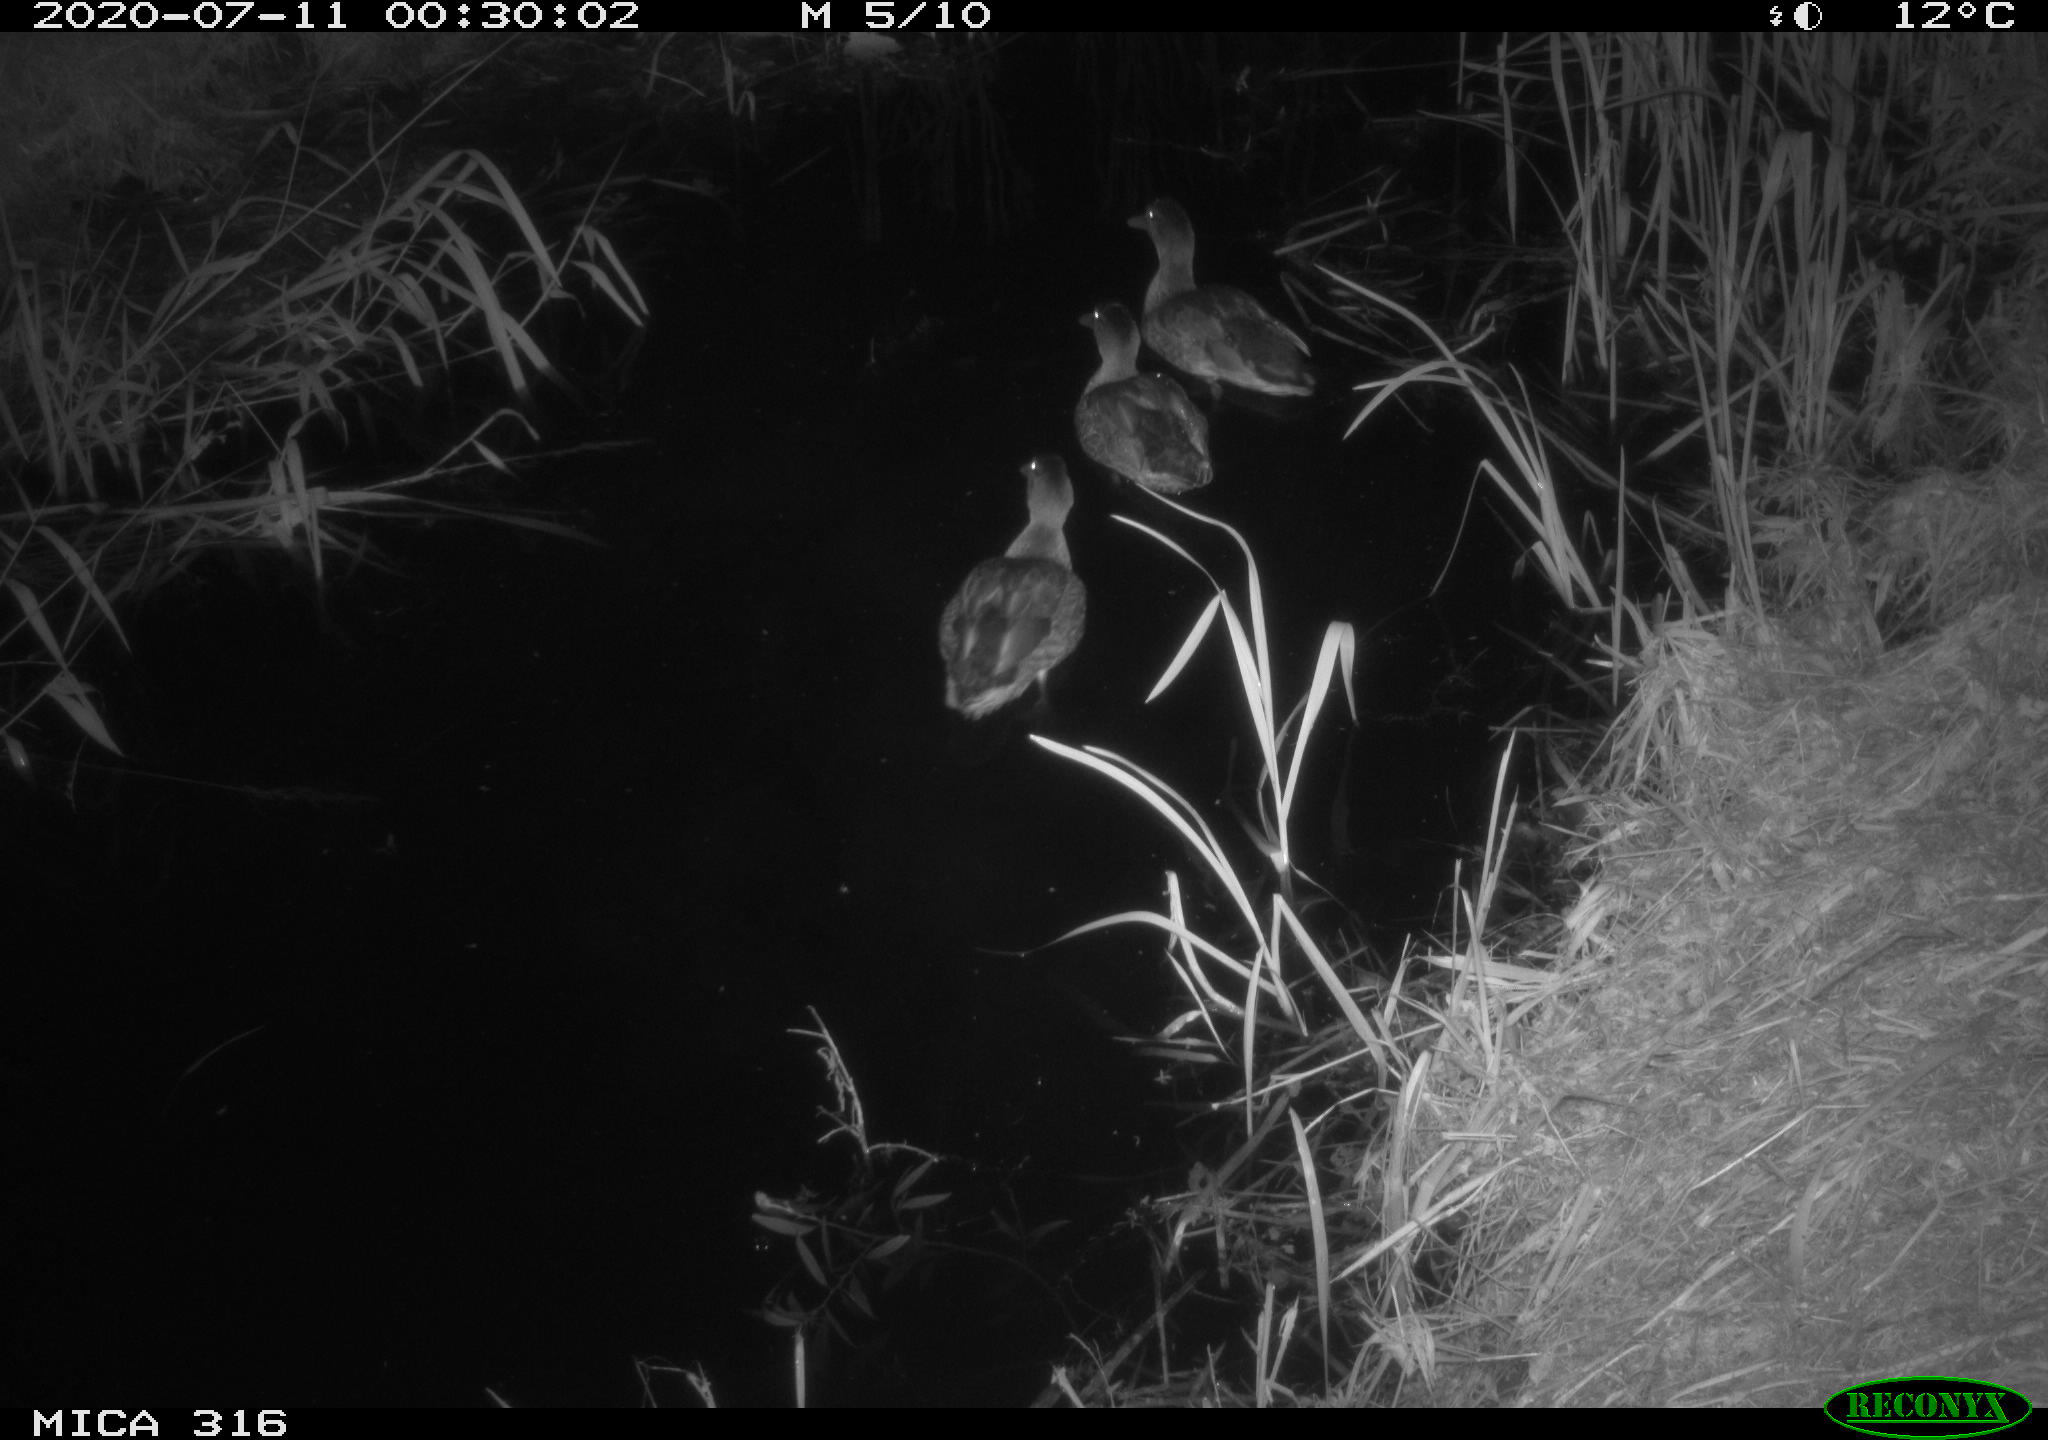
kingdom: Animalia
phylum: Chordata
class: Aves
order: Anseriformes
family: Anatidae
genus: Anas
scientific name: Anas platyrhynchos
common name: Mallard
